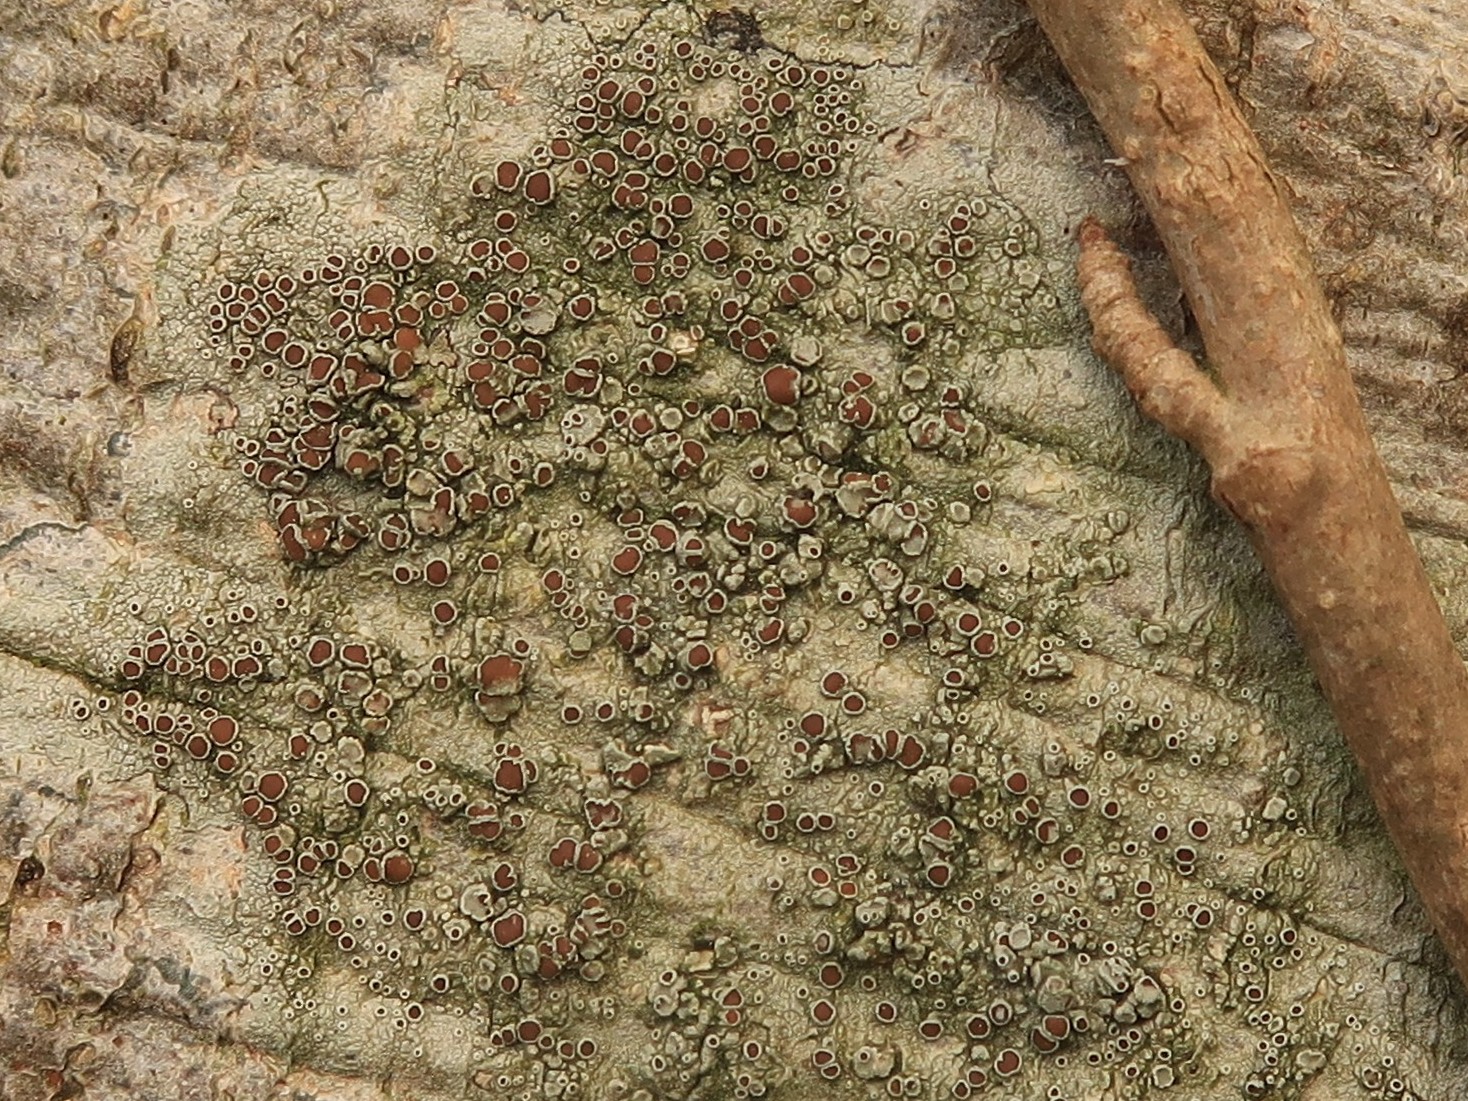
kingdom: Fungi
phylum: Ascomycota
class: Lecanoromycetes
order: Lecanorales
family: Lecanoraceae
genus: Lecanora
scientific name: Lecanora argentata
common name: sølv-kantskivelav
